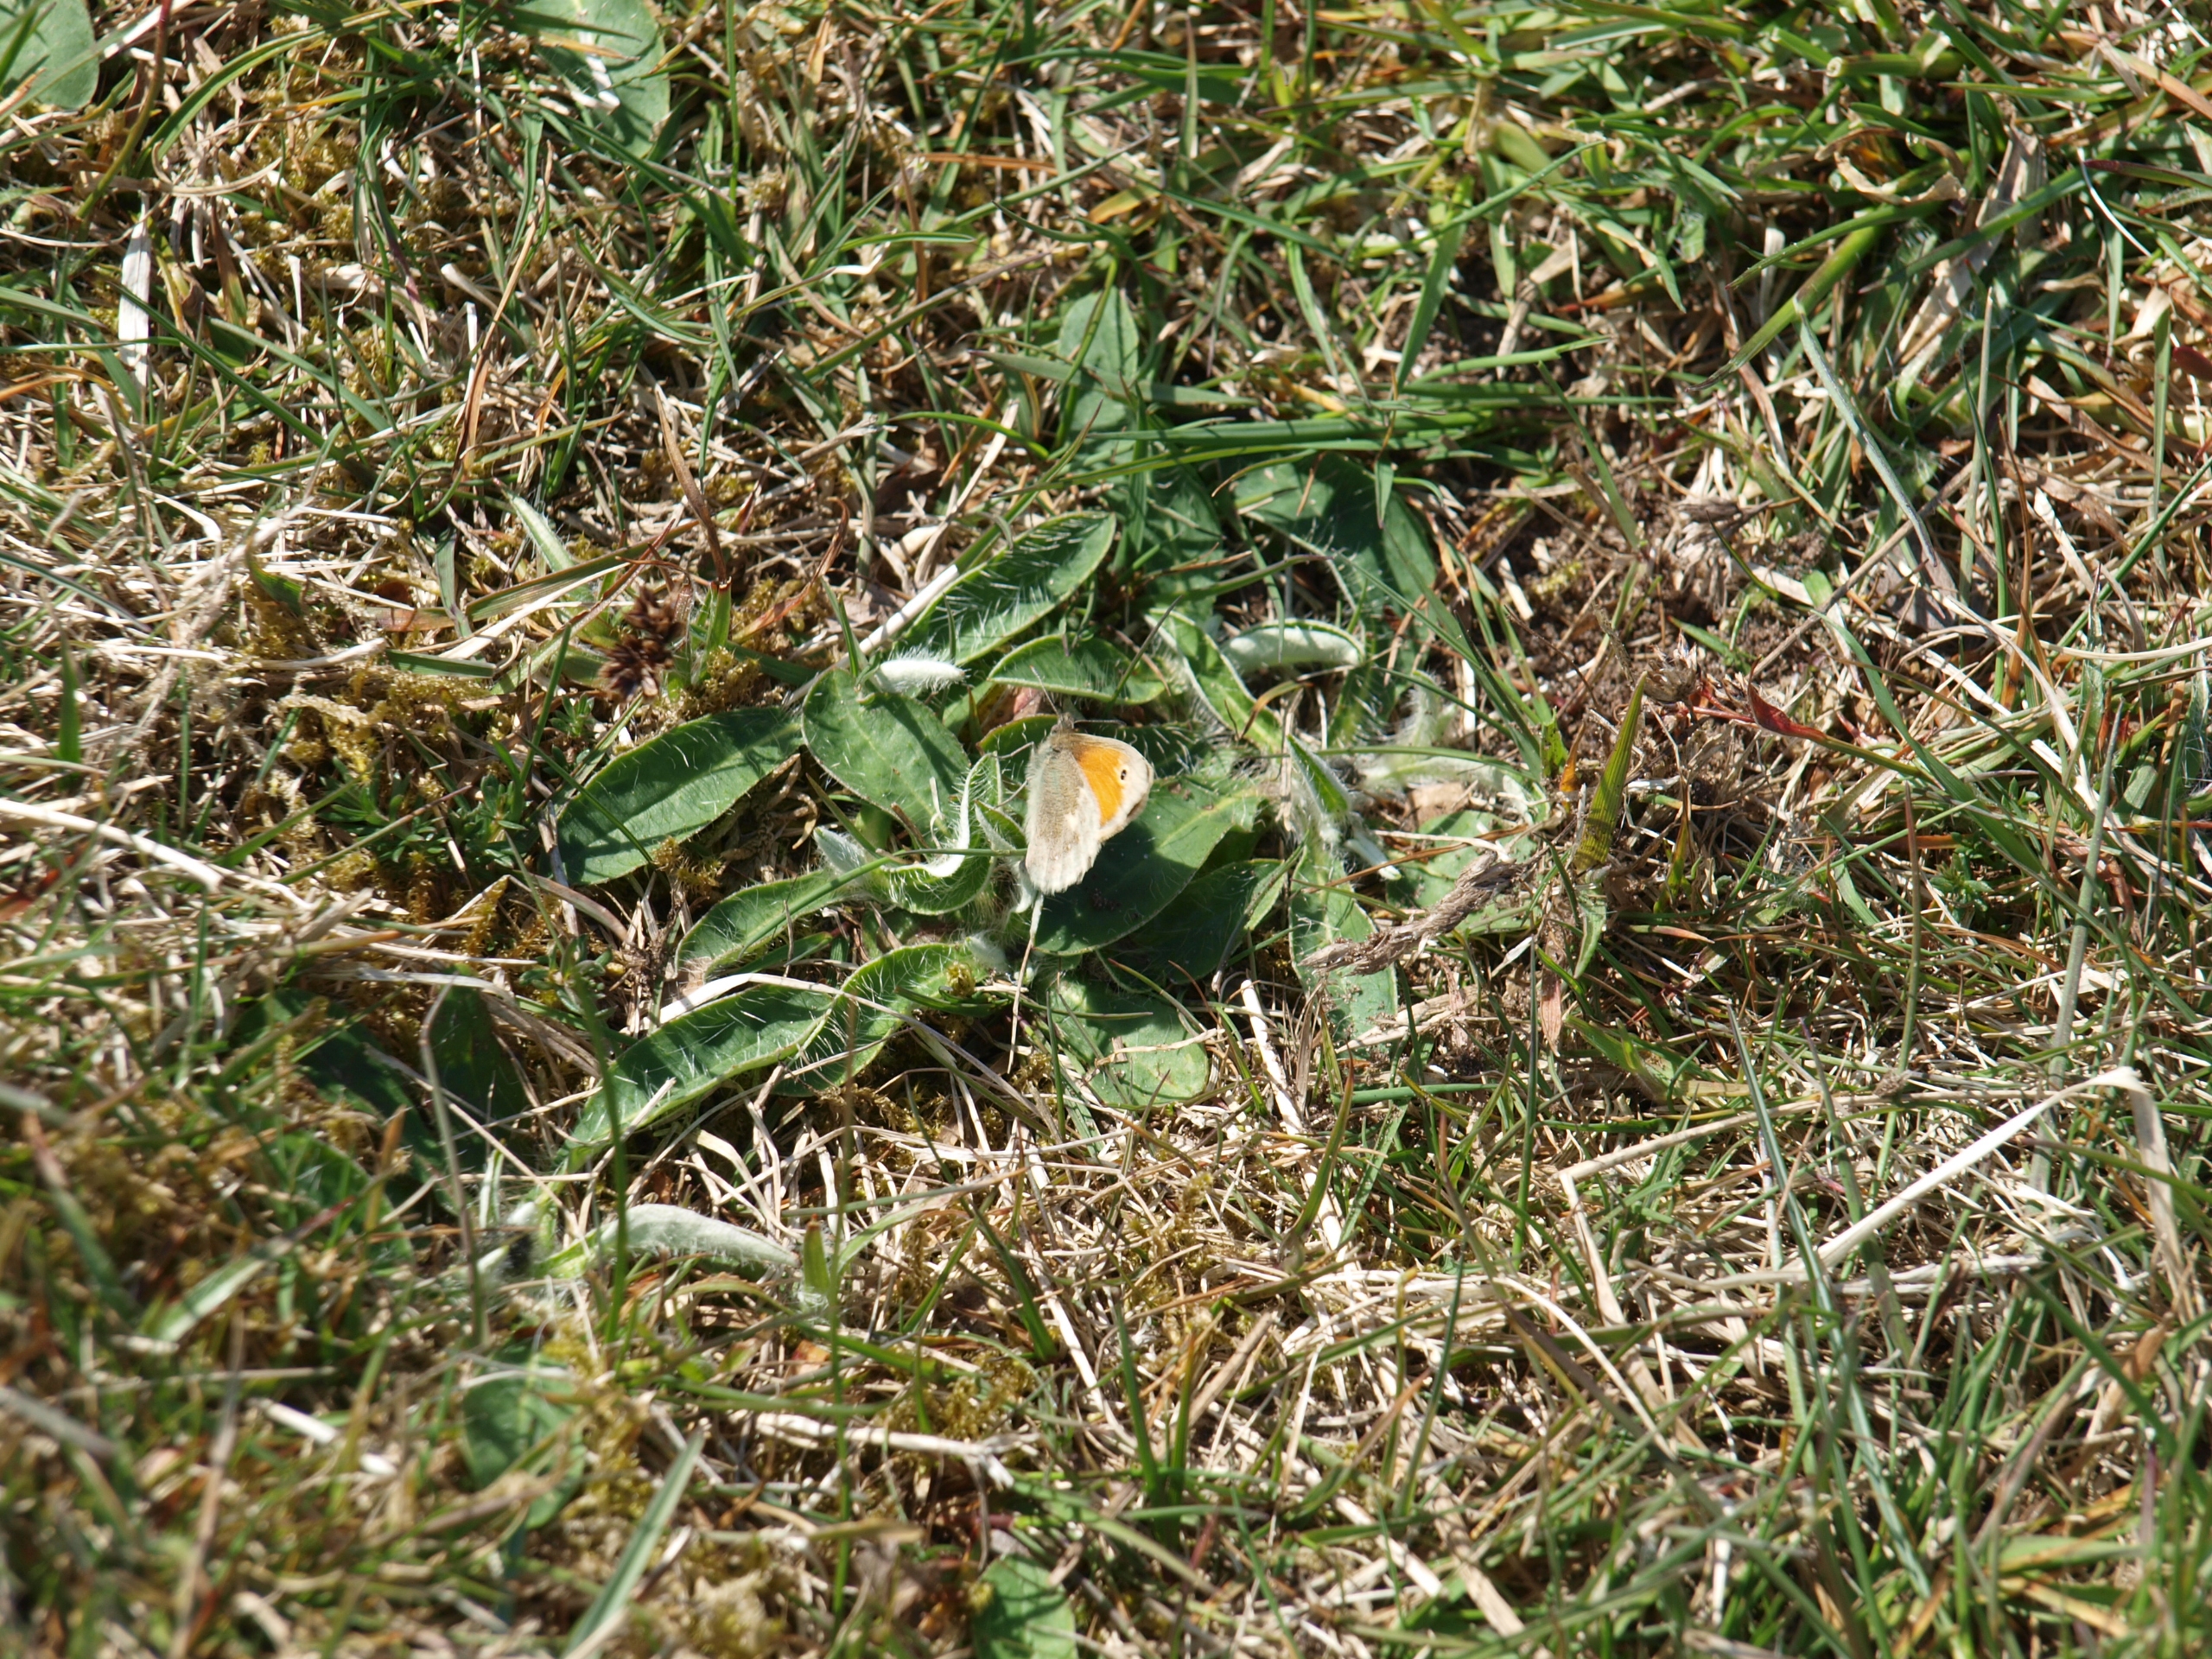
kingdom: Animalia
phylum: Arthropoda
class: Insecta
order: Lepidoptera
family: Nymphalidae
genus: Coenonympha
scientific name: Coenonympha pamphilus
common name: Okkergul randøje
